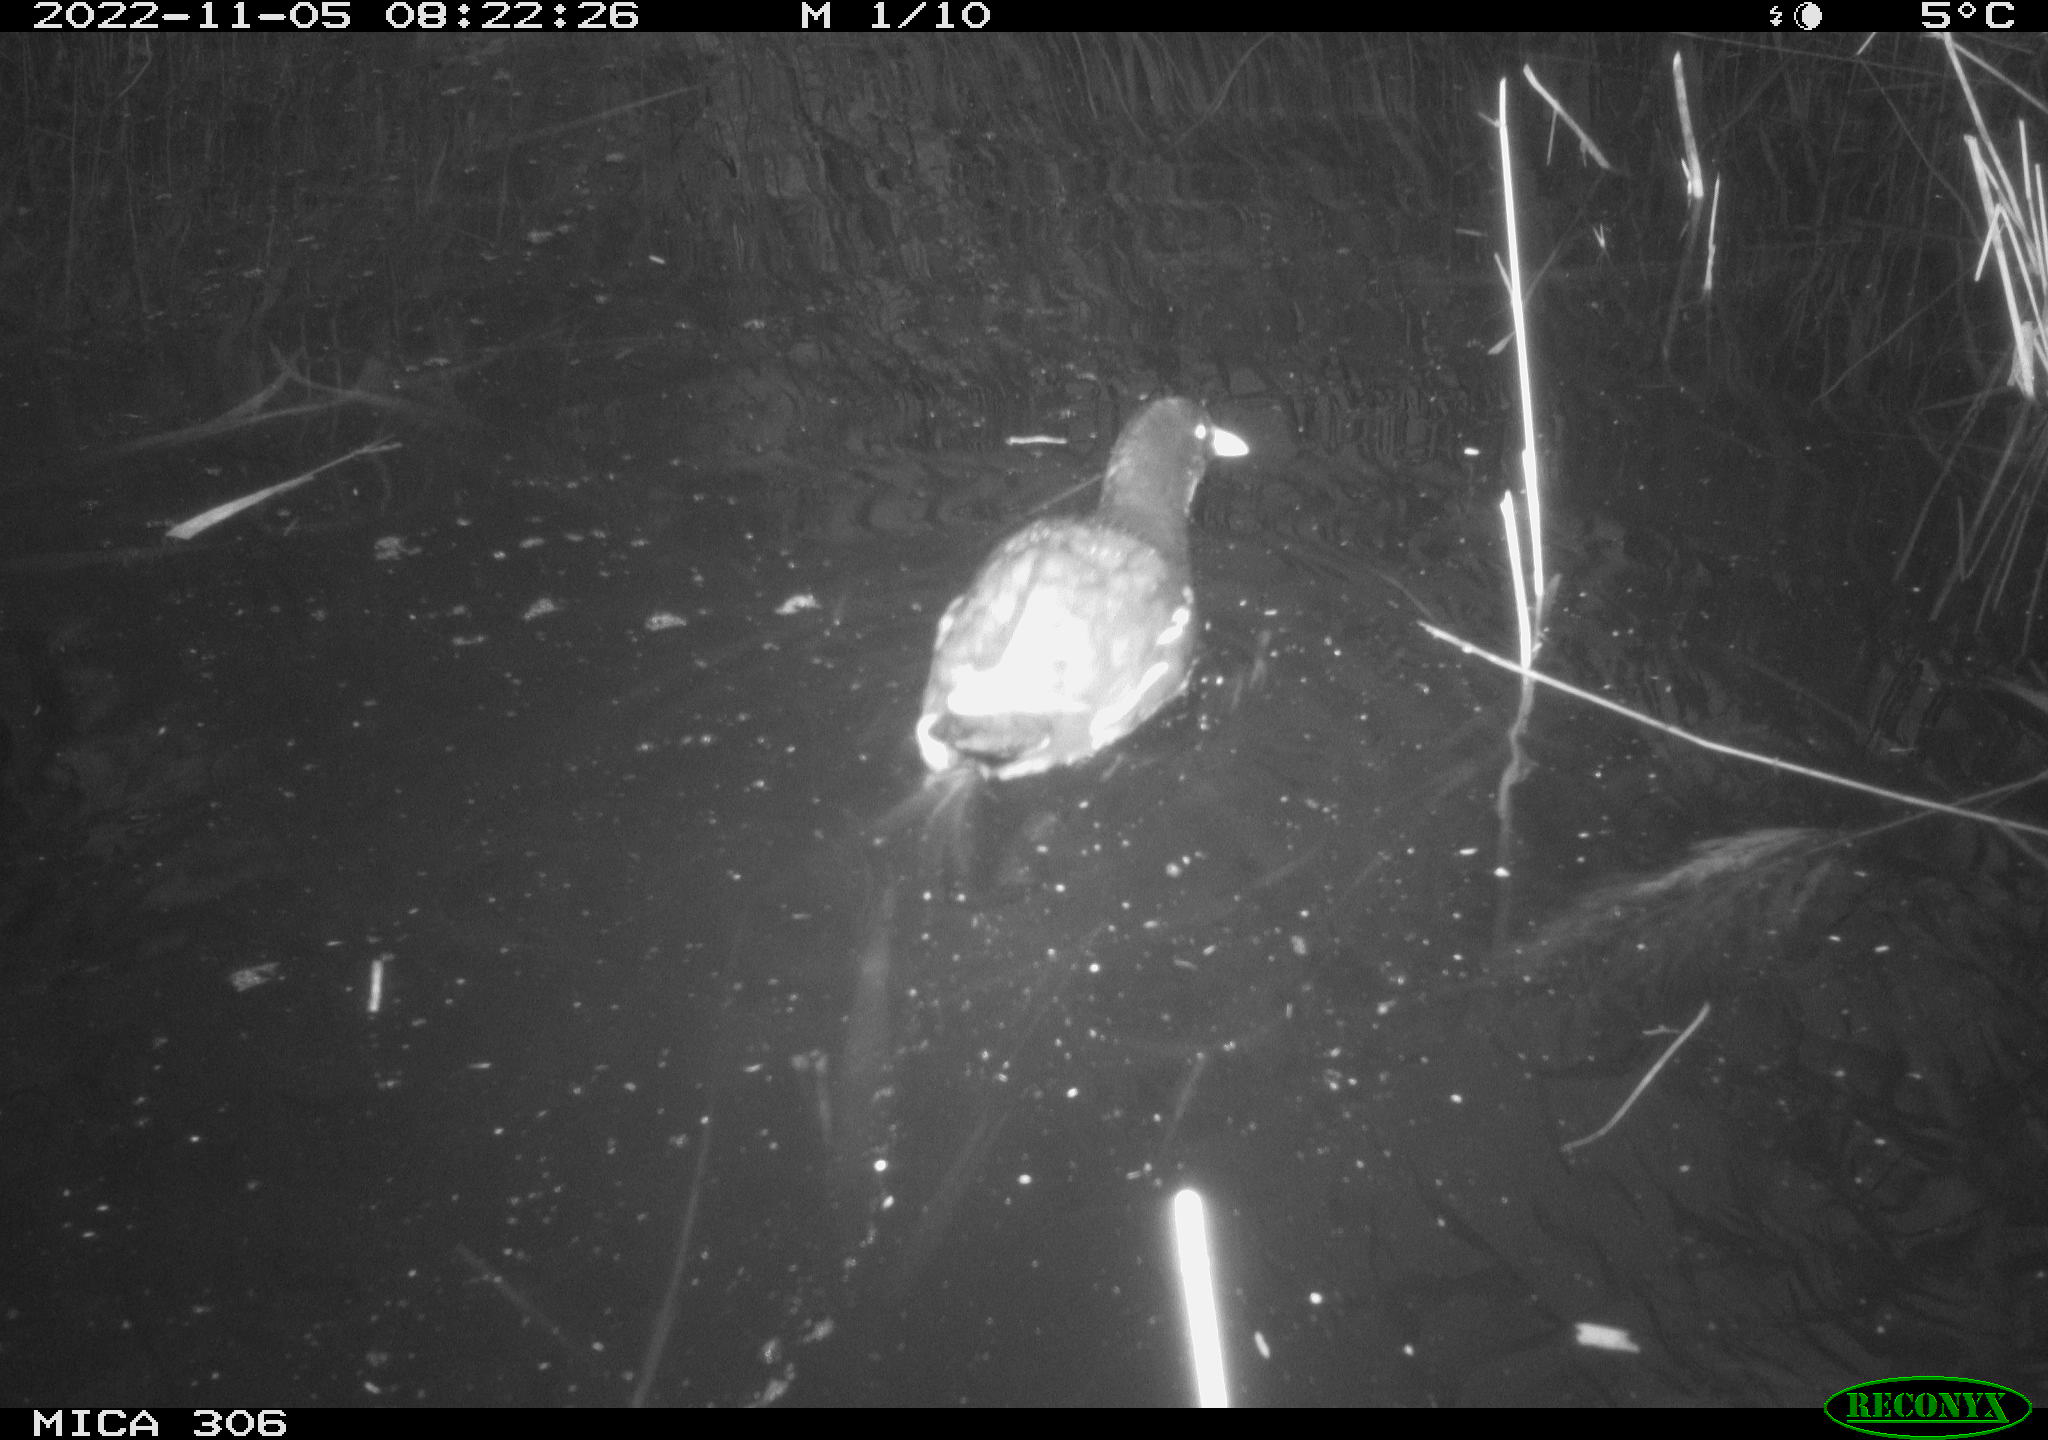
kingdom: Animalia
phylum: Chordata
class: Aves
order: Gruiformes
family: Rallidae
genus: Gallinula
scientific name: Gallinula chloropus
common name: Common moorhen
